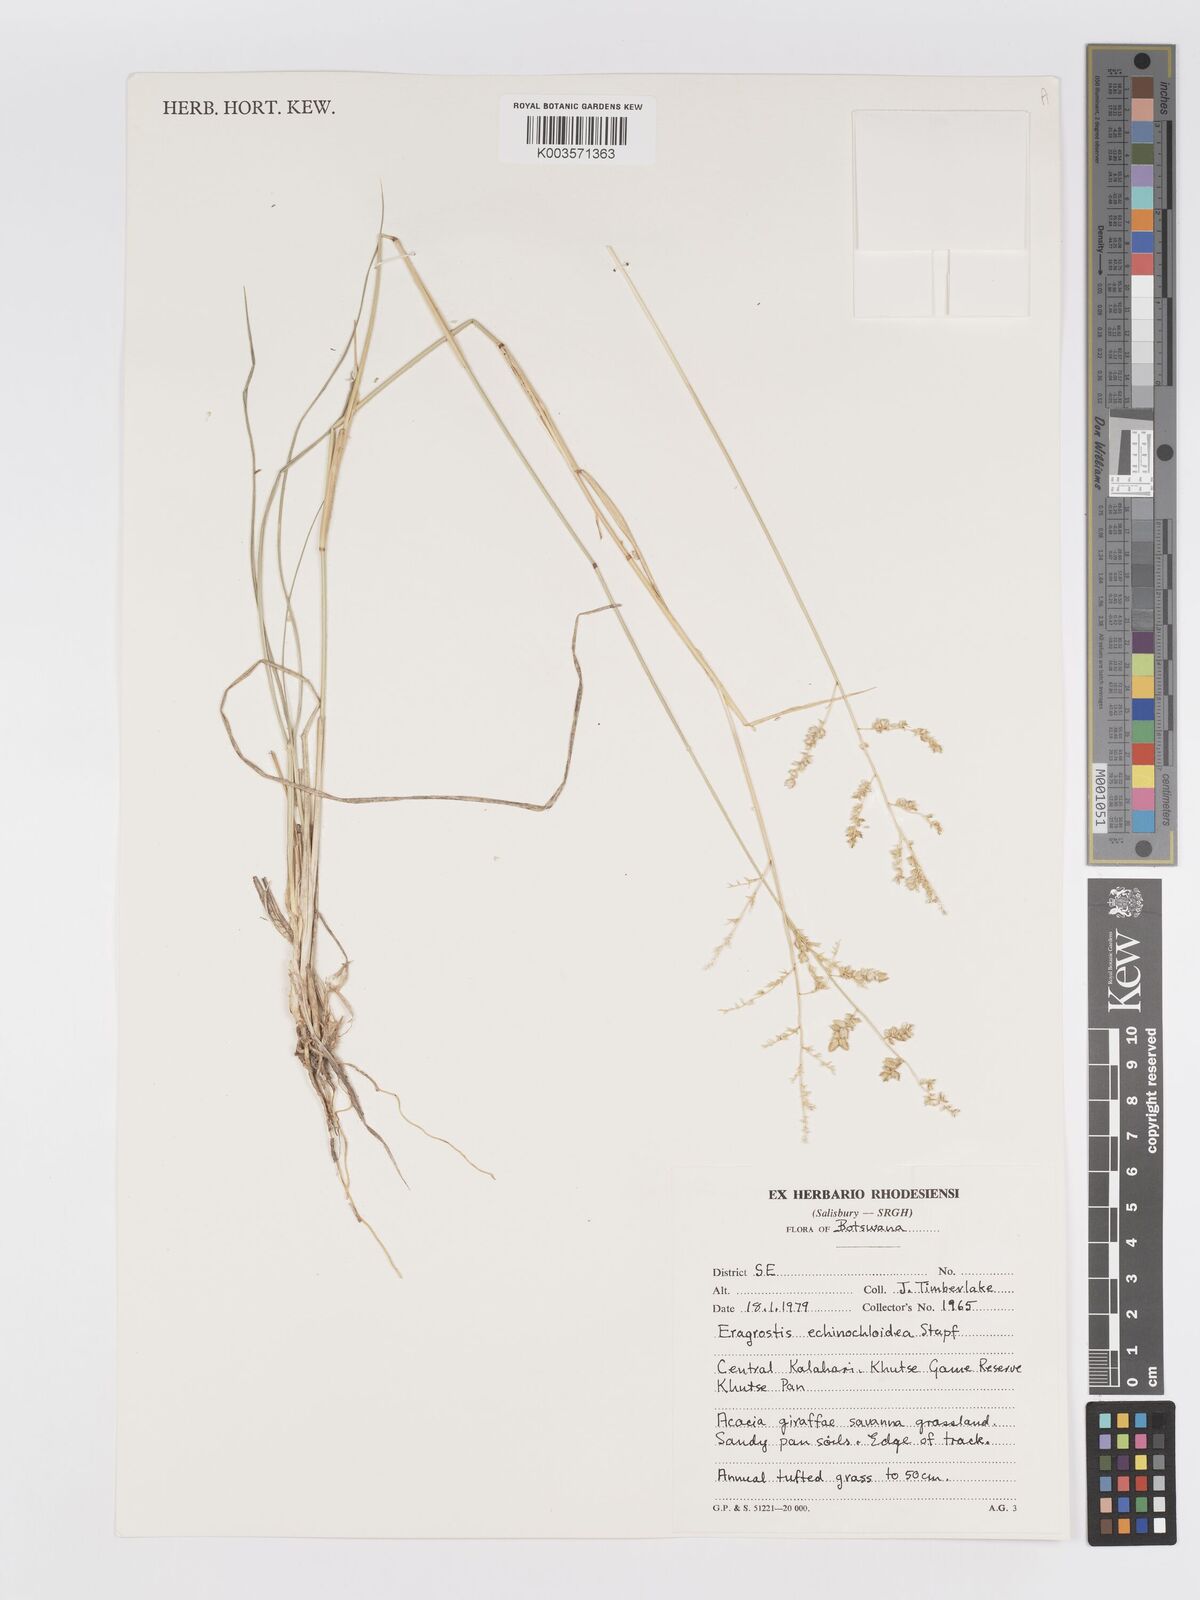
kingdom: Plantae
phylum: Tracheophyta
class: Liliopsida
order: Poales
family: Poaceae
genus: Eragrostis
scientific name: Eragrostis echinochloidea
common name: African lovegrass
